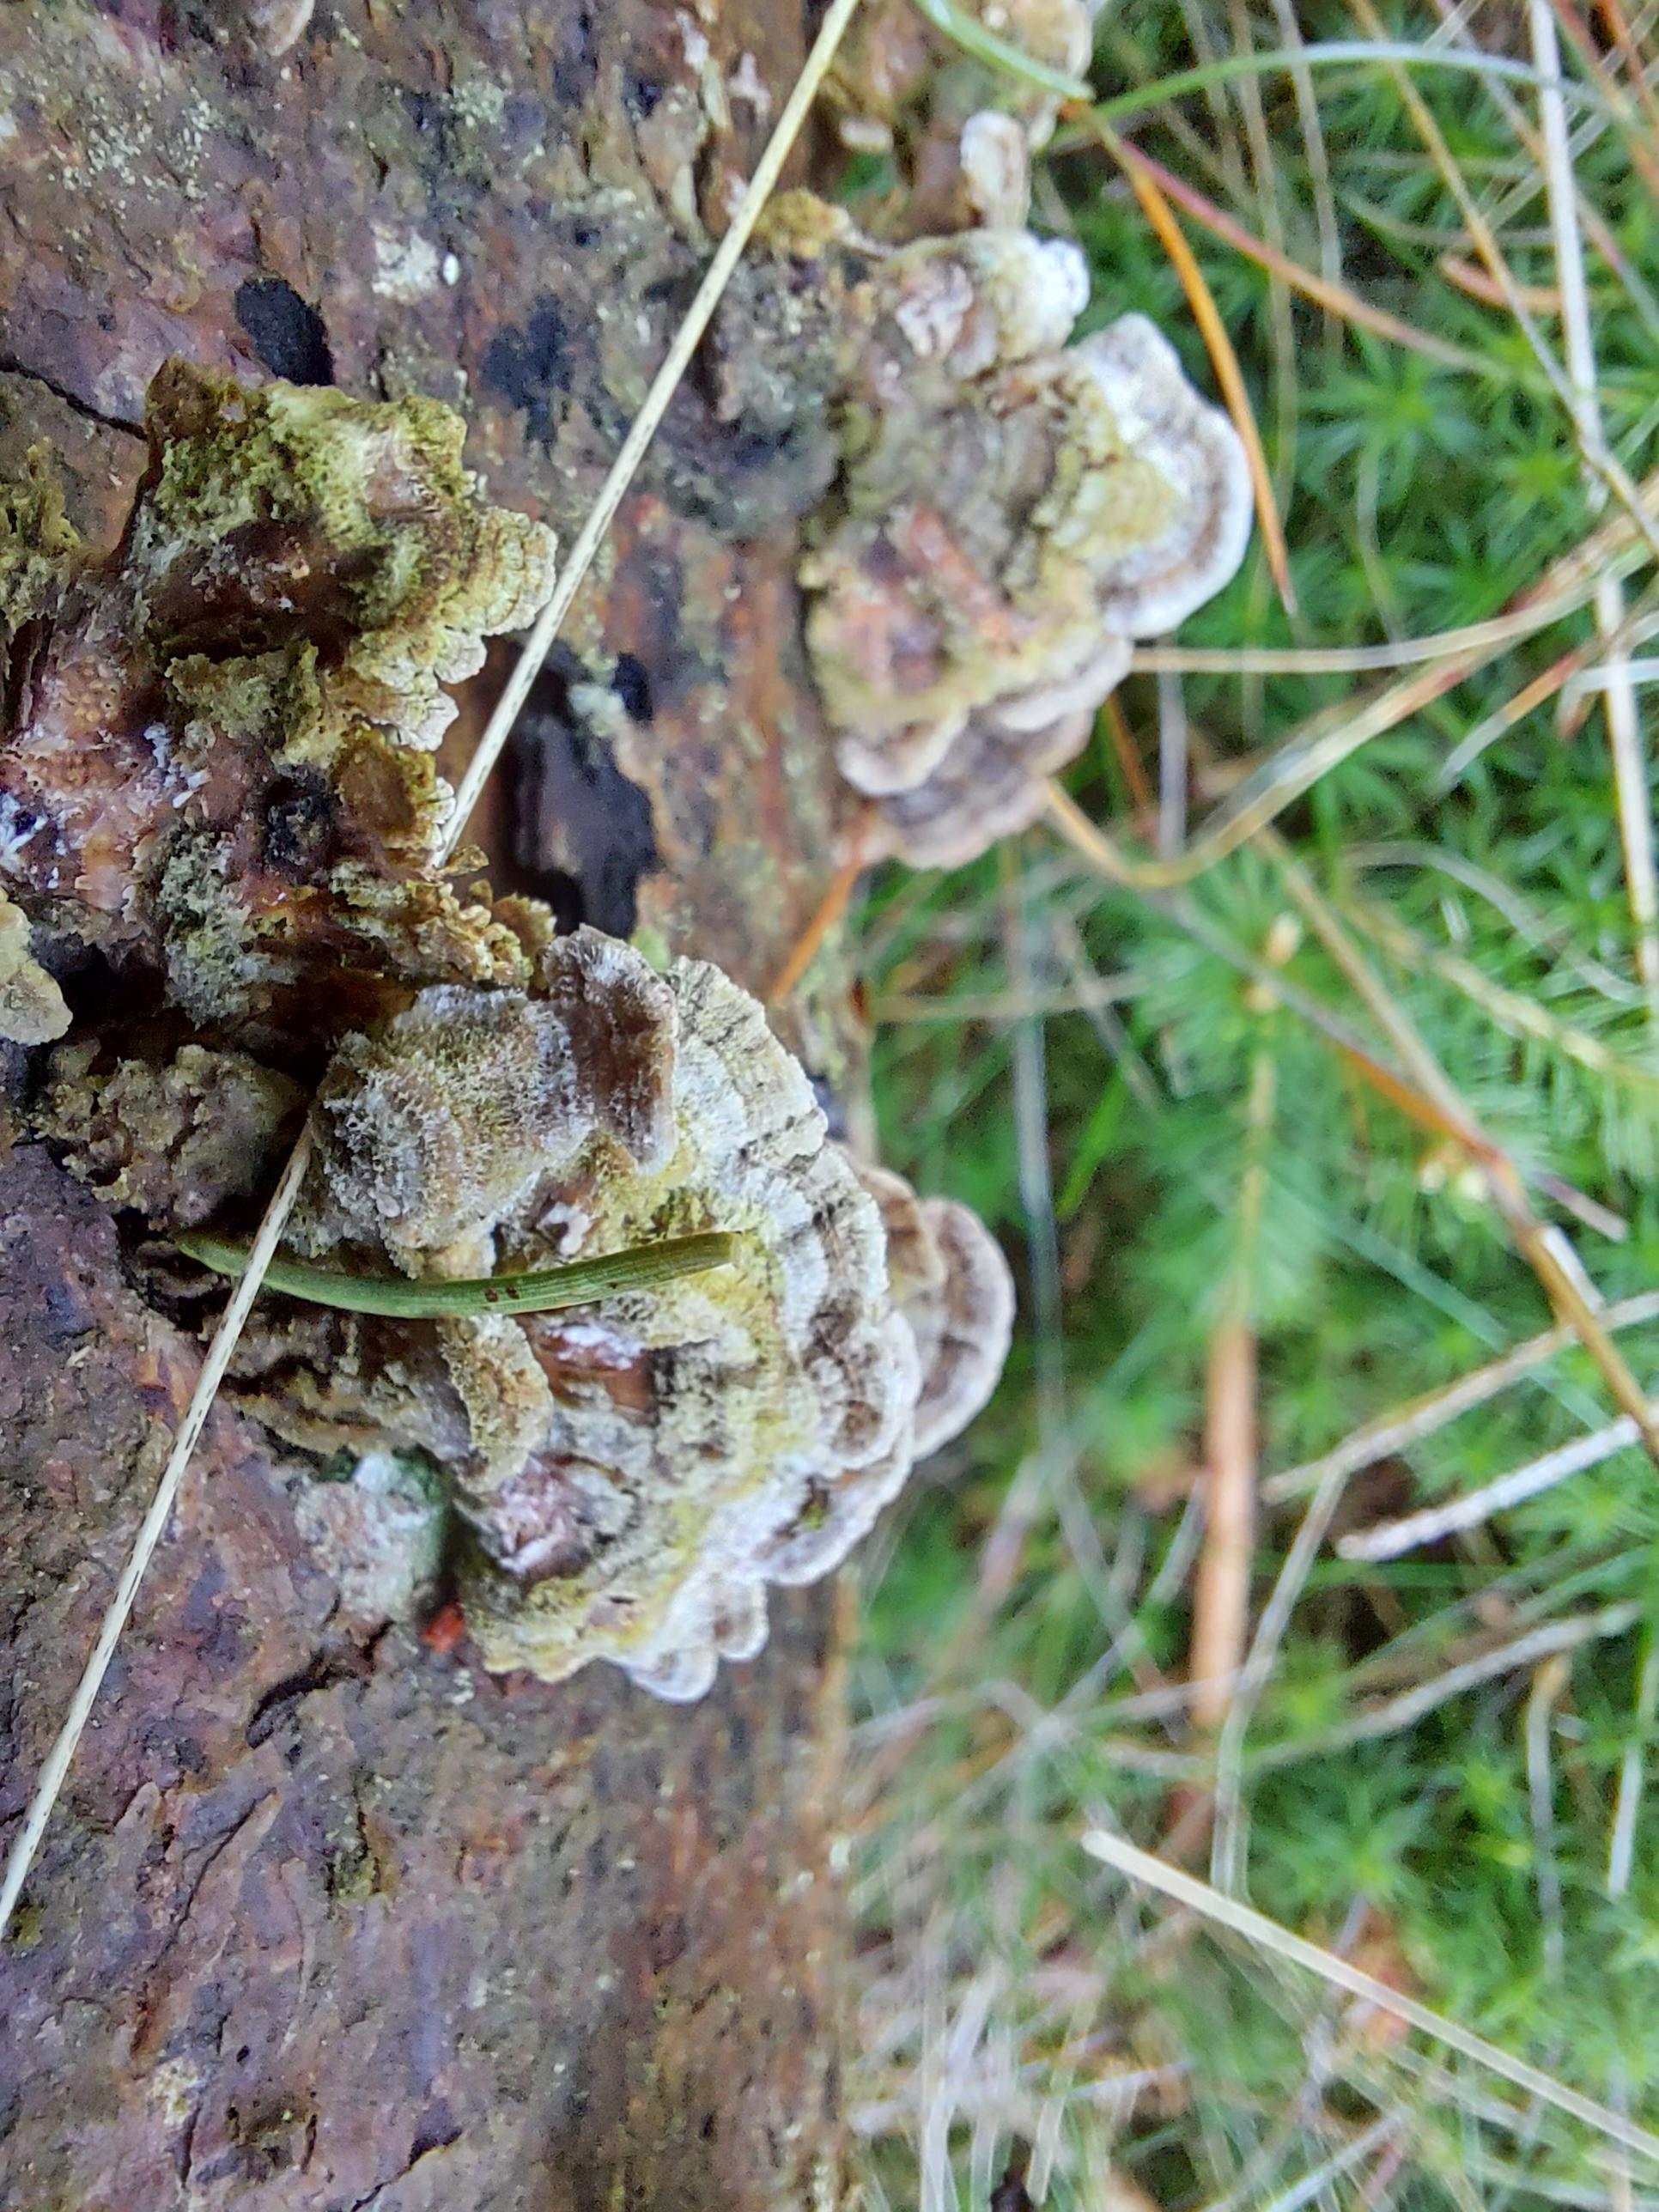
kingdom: Fungi
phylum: Basidiomycota
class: Agaricomycetes
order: Hymenochaetales
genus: Trichaptum
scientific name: Trichaptum abietinum
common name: almindelig violporesvamp
